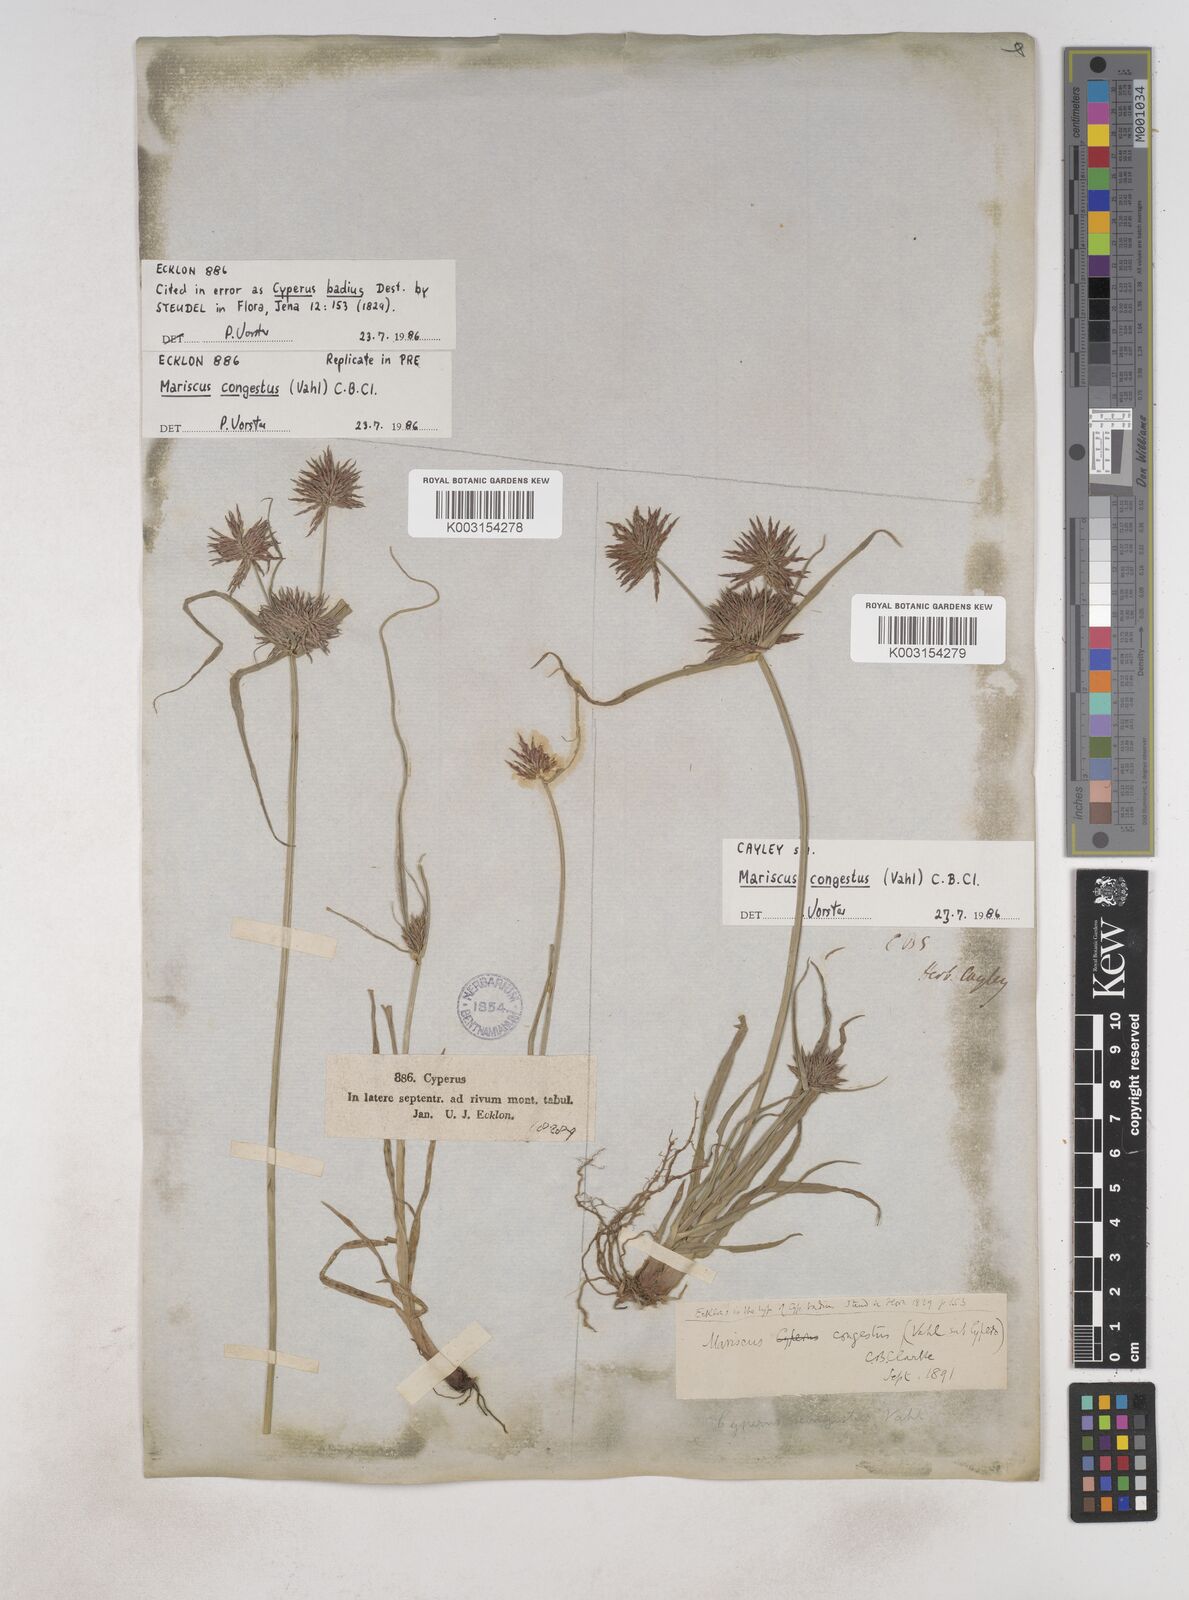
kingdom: Plantae
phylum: Tracheophyta
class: Liliopsida
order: Poales
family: Cyperaceae
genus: Cyperus
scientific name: Cyperus congestus
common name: Dense flat sedge
